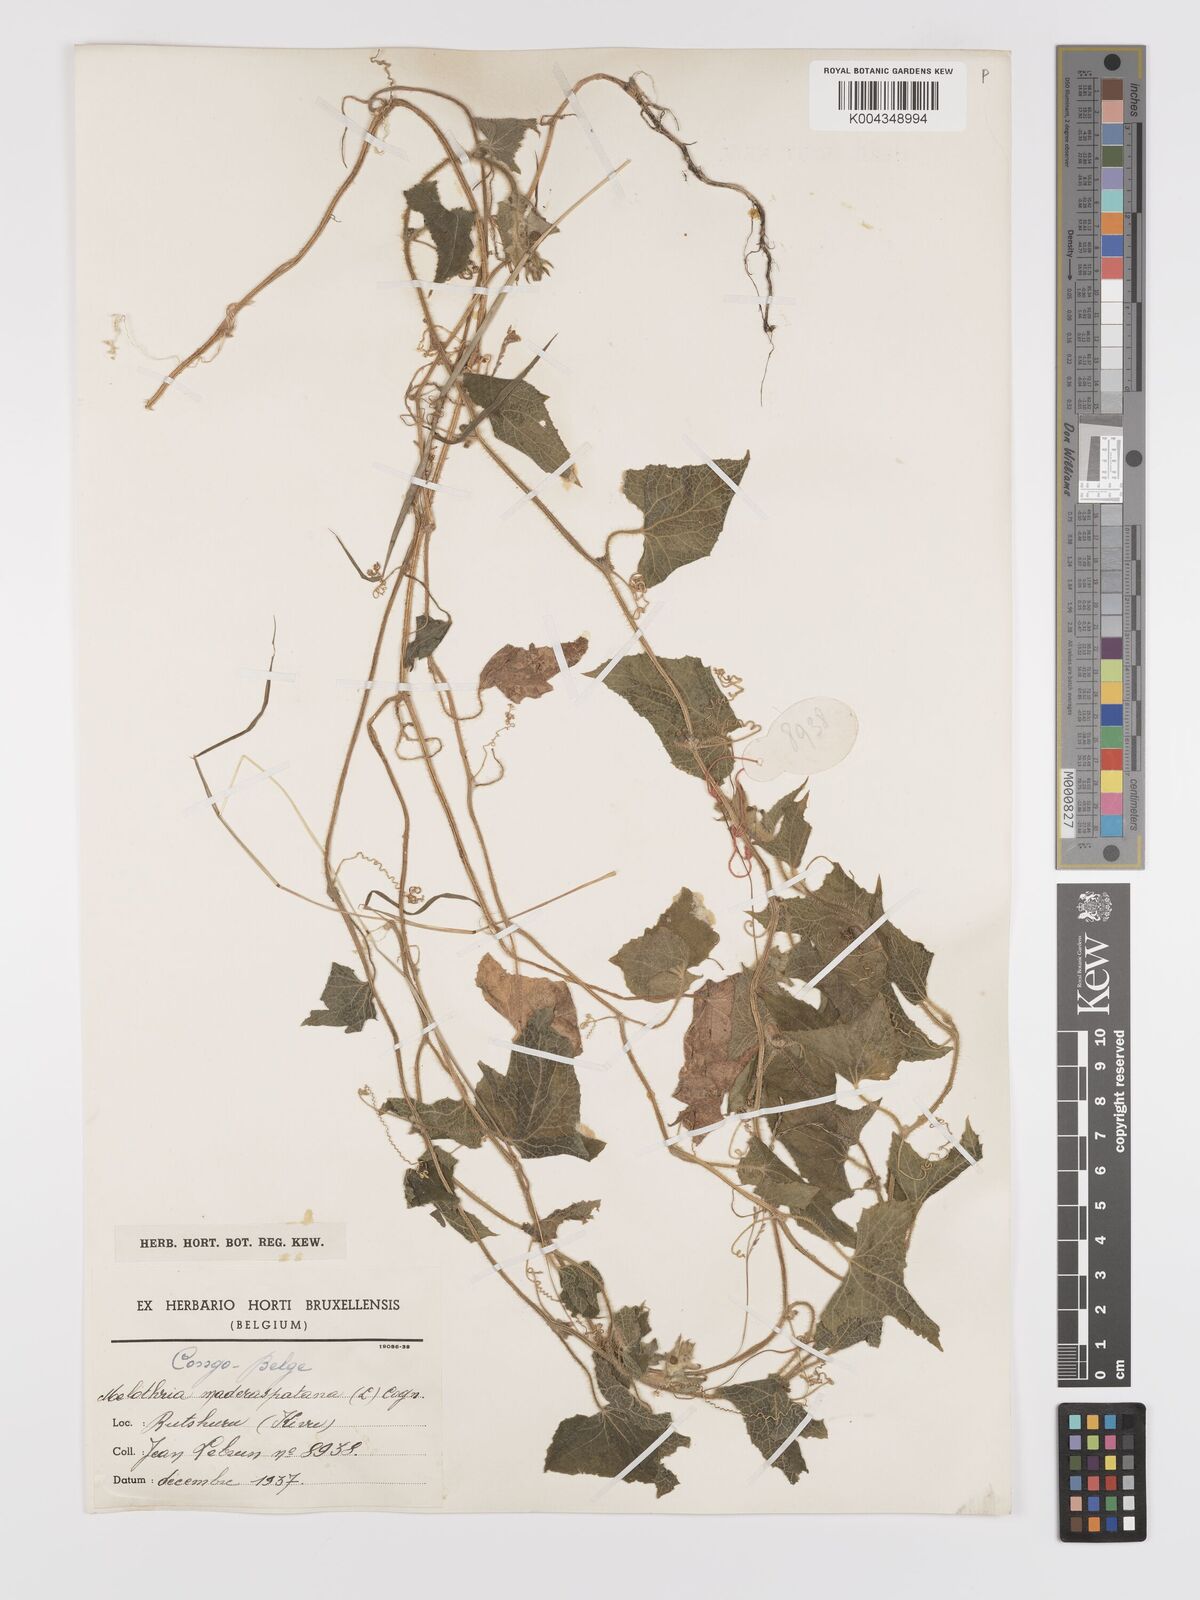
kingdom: Plantae
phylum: Tracheophyta
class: Magnoliopsida
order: Cucurbitales
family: Cucurbitaceae
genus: Cucumis
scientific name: Cucumis maderaspatanus
